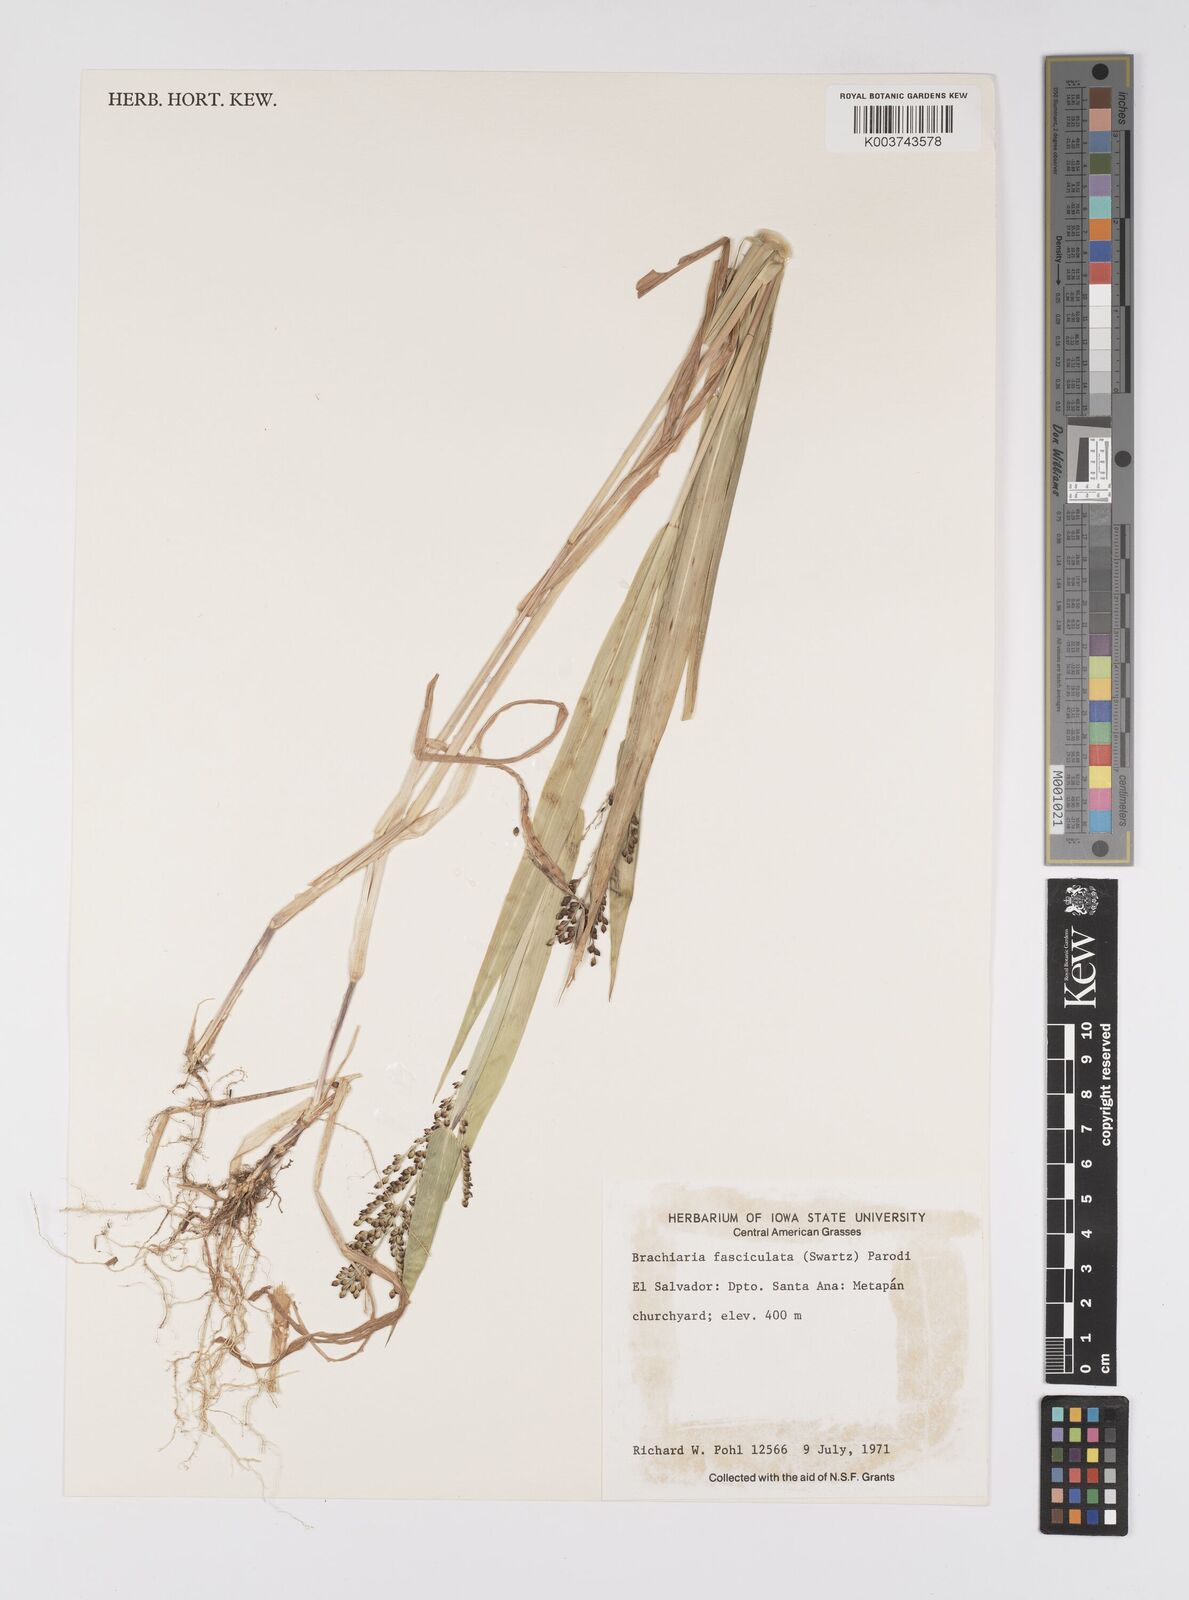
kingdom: Plantae
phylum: Tracheophyta
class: Liliopsida
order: Poales
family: Poaceae
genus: Urochloa
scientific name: Urochloa fusca
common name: Browntop signal grass
